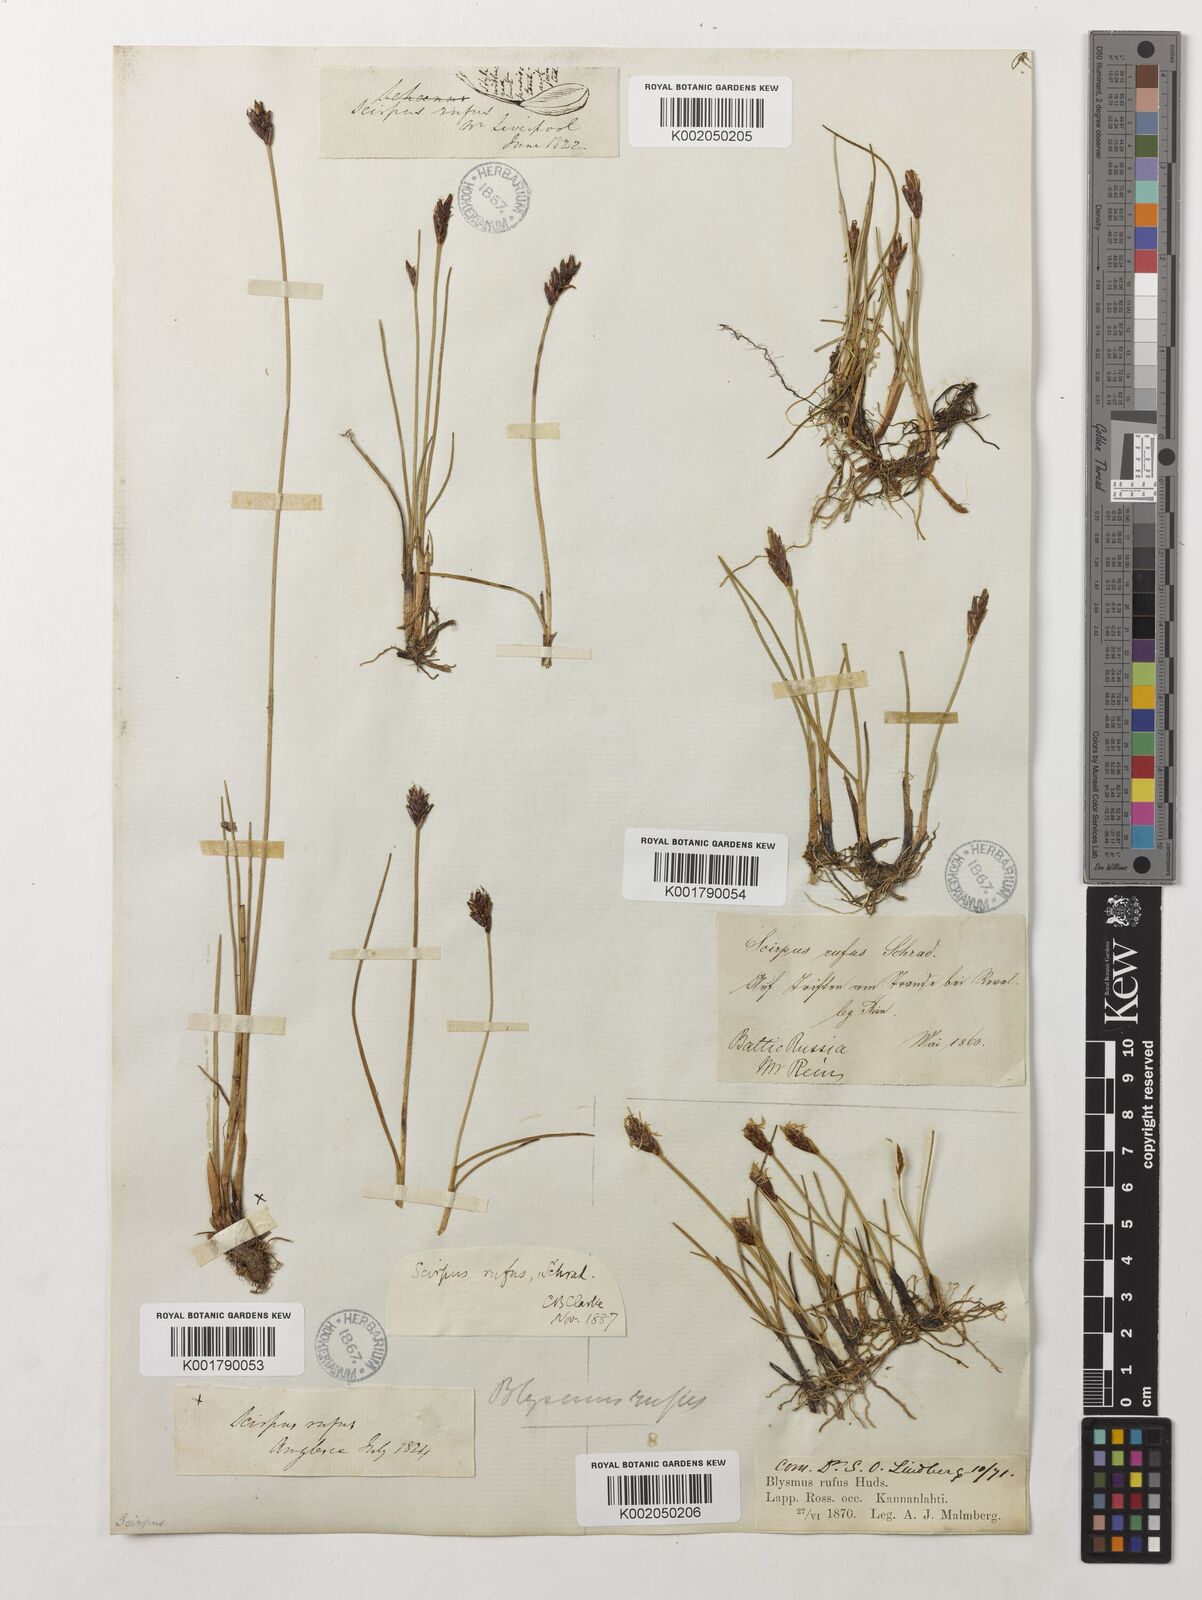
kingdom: Plantae
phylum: Tracheophyta
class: Liliopsida
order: Poales
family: Cyperaceae
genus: Blysmus
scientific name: Blysmus rufus
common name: Saltmarsh flat-sedge
